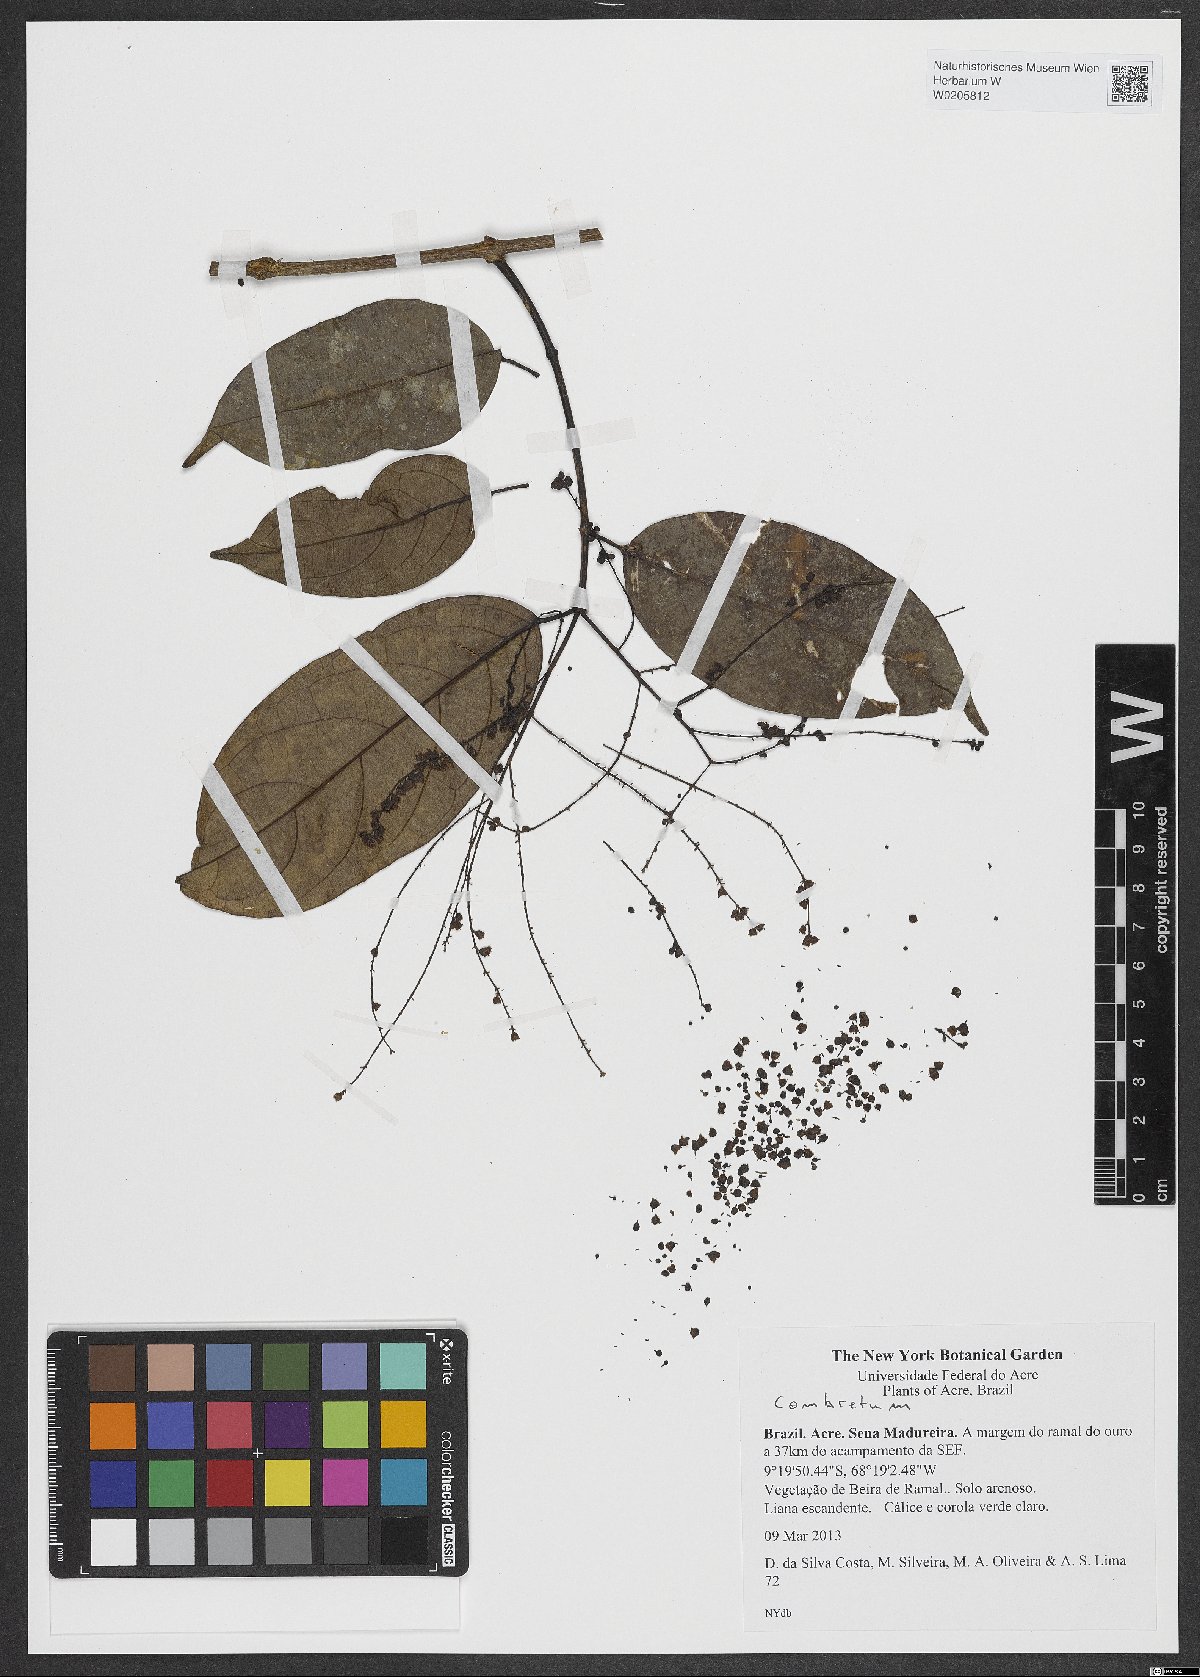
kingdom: Plantae
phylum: Tracheophyta
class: Magnoliopsida
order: Myrtales
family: Combretaceae
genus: Combretum
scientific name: Combretum
